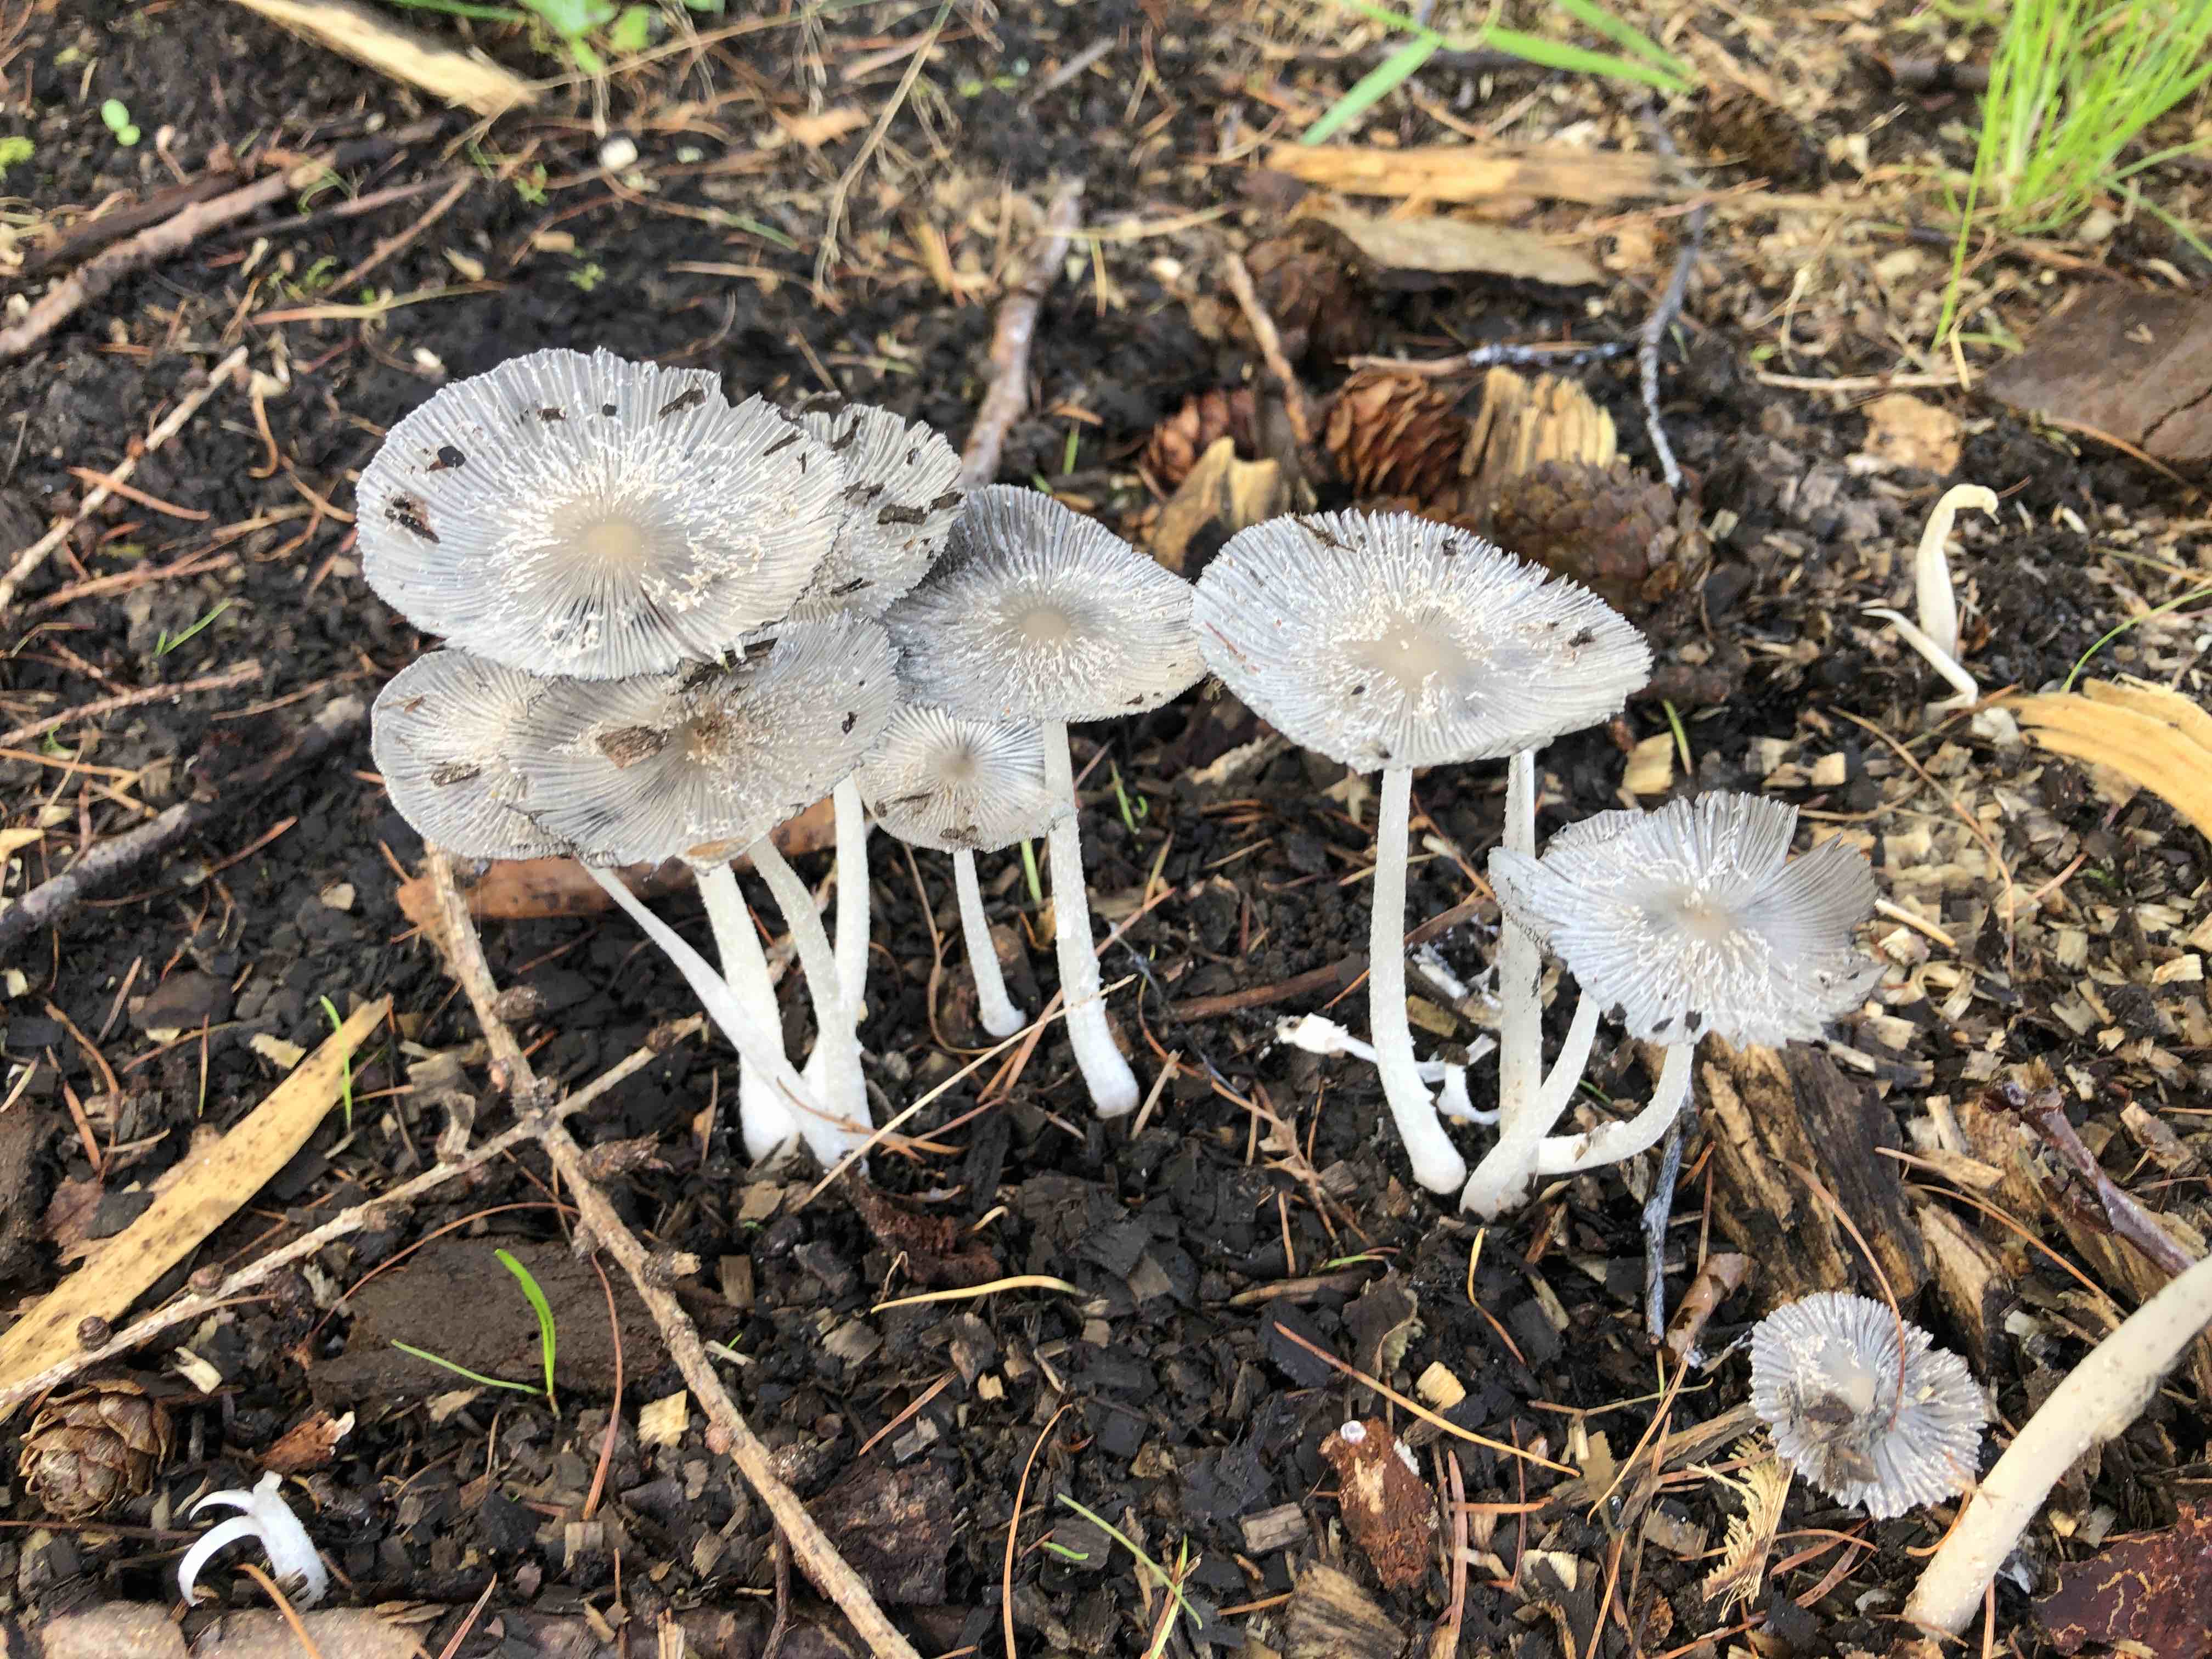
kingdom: Fungi
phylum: Basidiomycota
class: Agaricomycetes
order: Agaricales
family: Psathyrellaceae
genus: Coprinopsis
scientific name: Coprinopsis lagopus
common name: dunstokket blækhat
